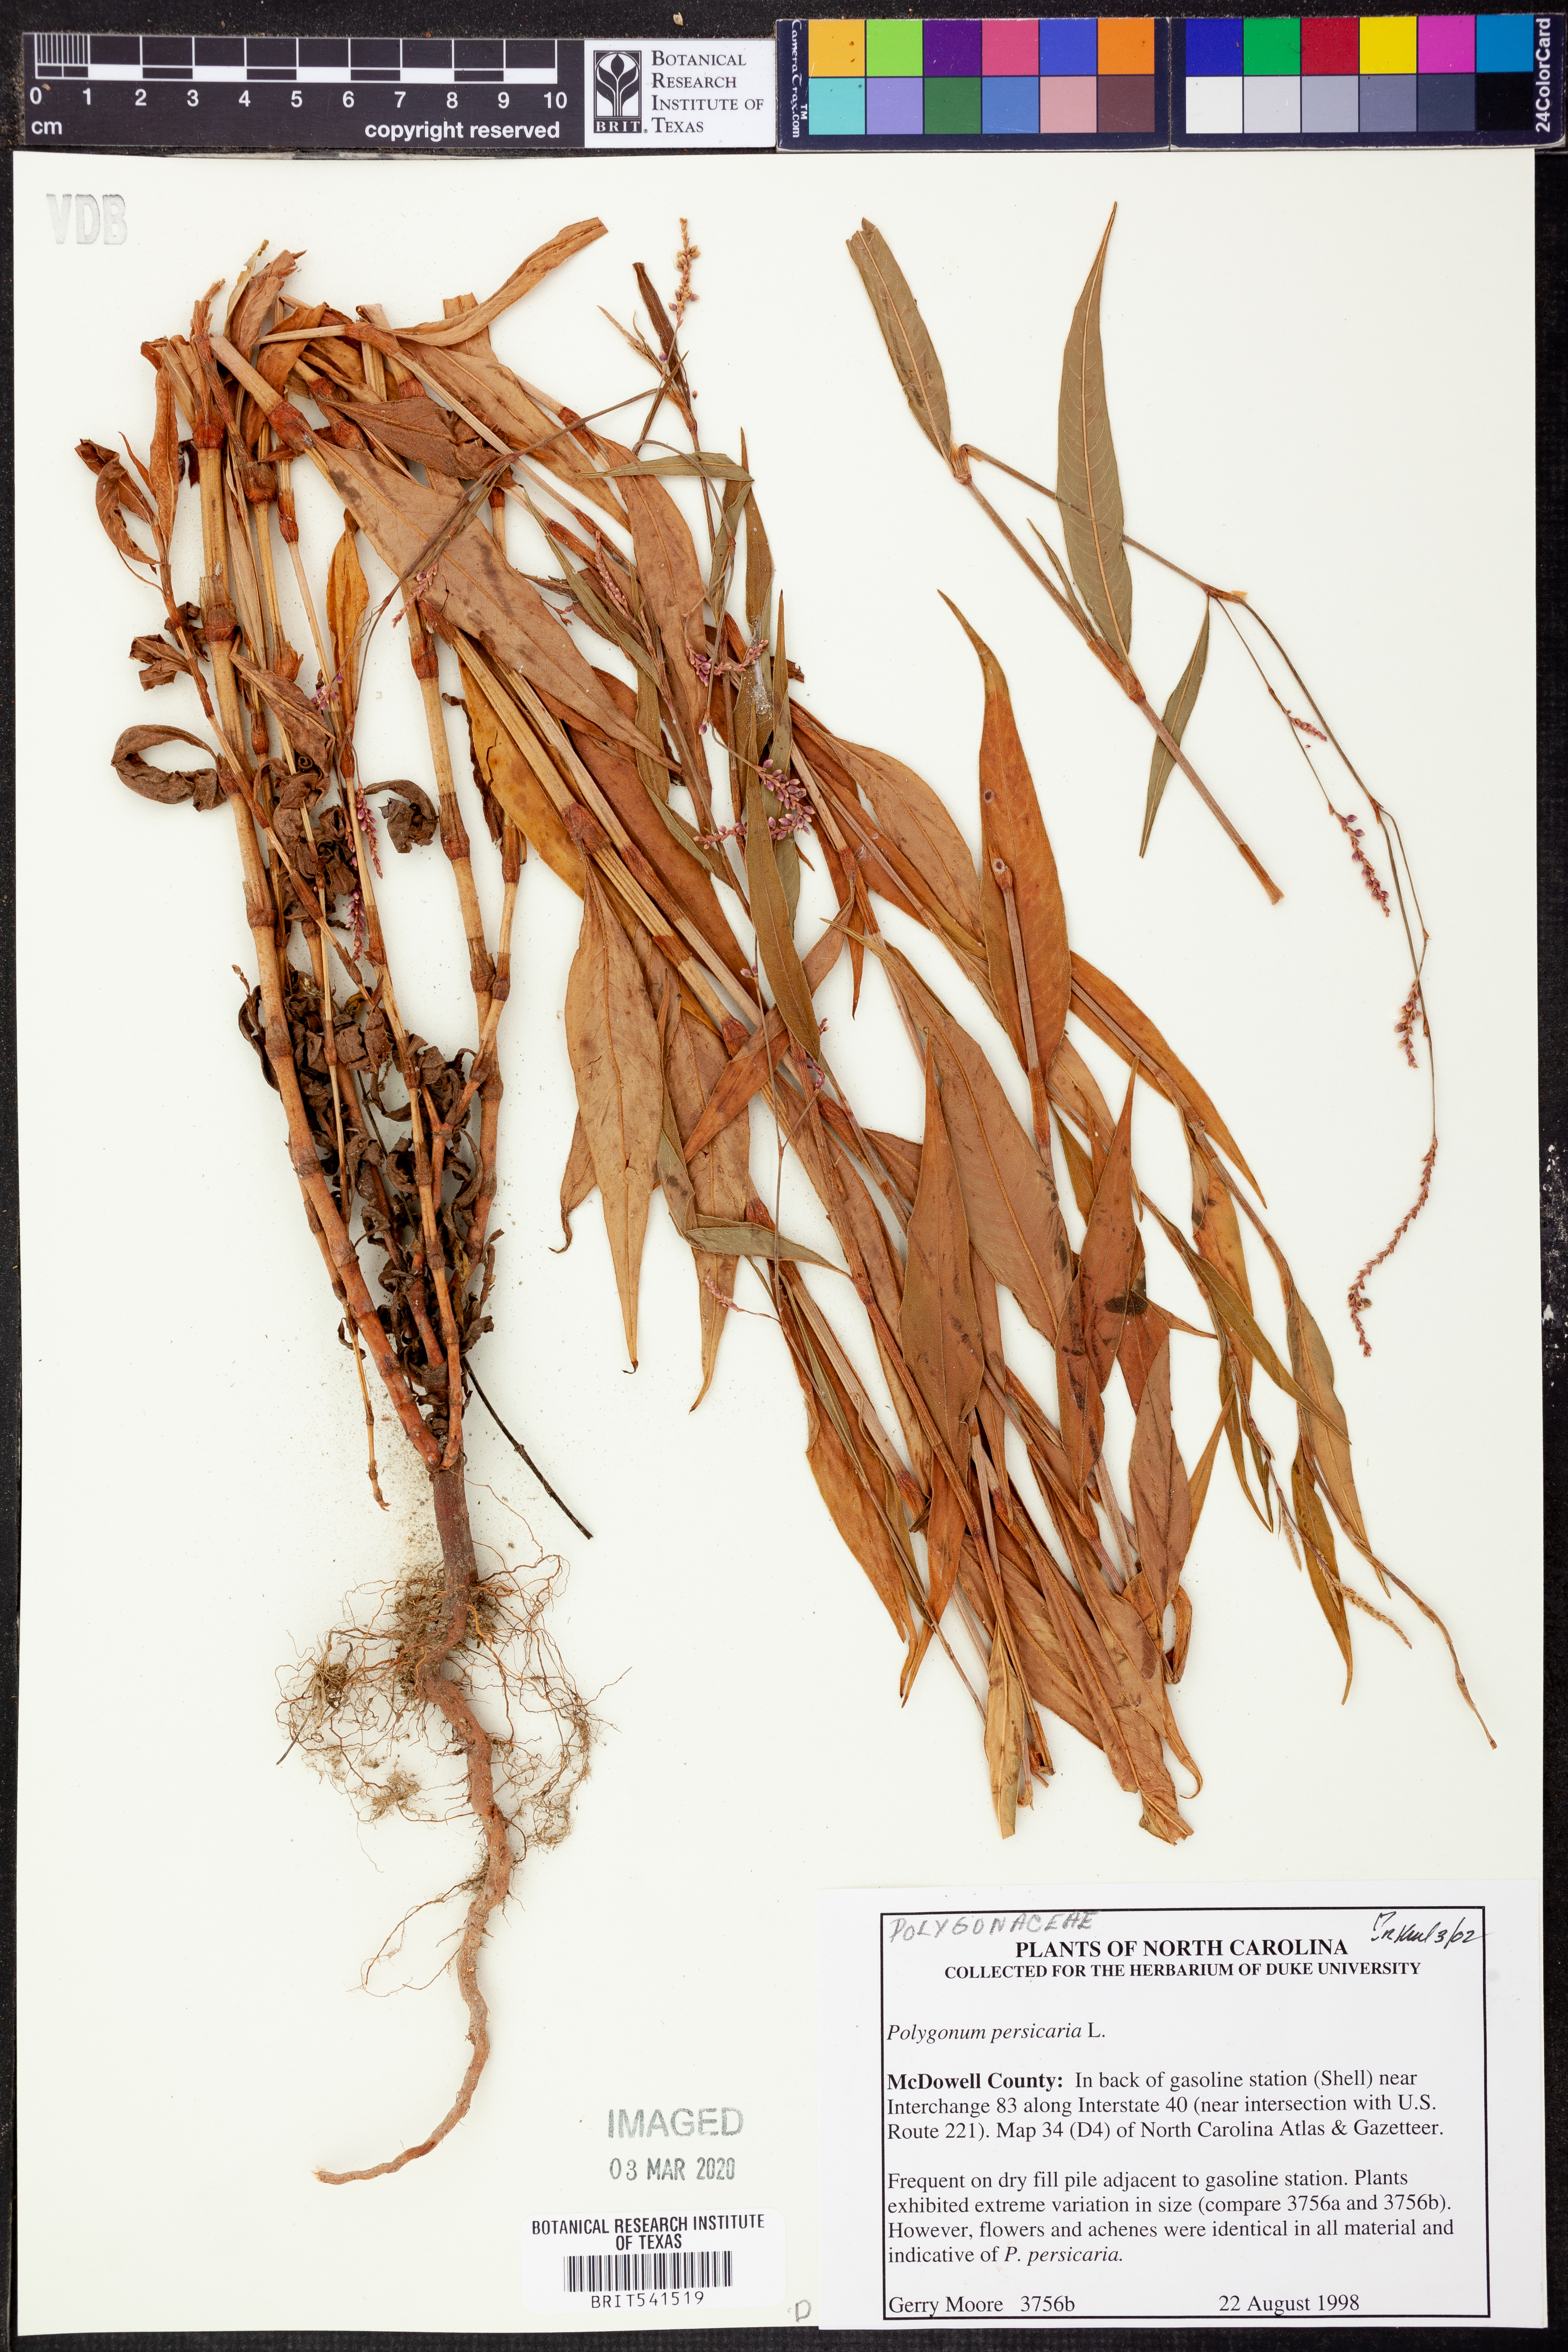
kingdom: Plantae
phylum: Tracheophyta
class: Magnoliopsida
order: Caryophyllales
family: Polygonaceae
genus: Persicaria
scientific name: Persicaria maculosa
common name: Redshank
